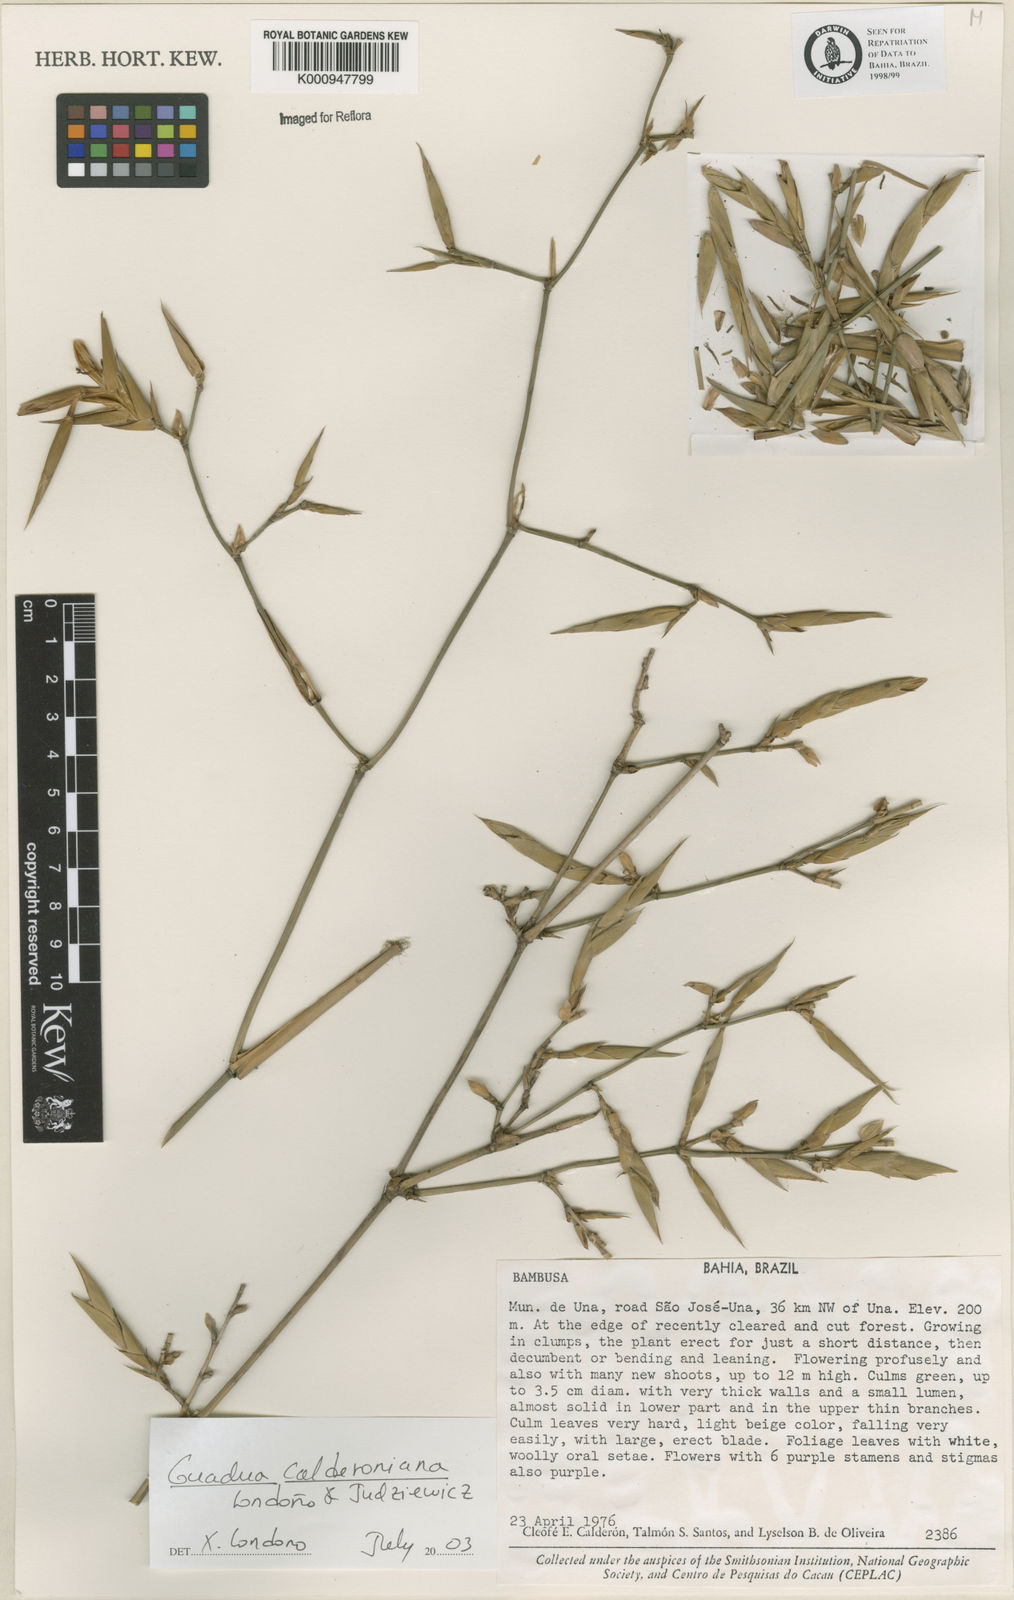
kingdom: Plantae
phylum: Tracheophyta
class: Liliopsida
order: Poales
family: Poaceae
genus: Guadua
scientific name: Guadua
